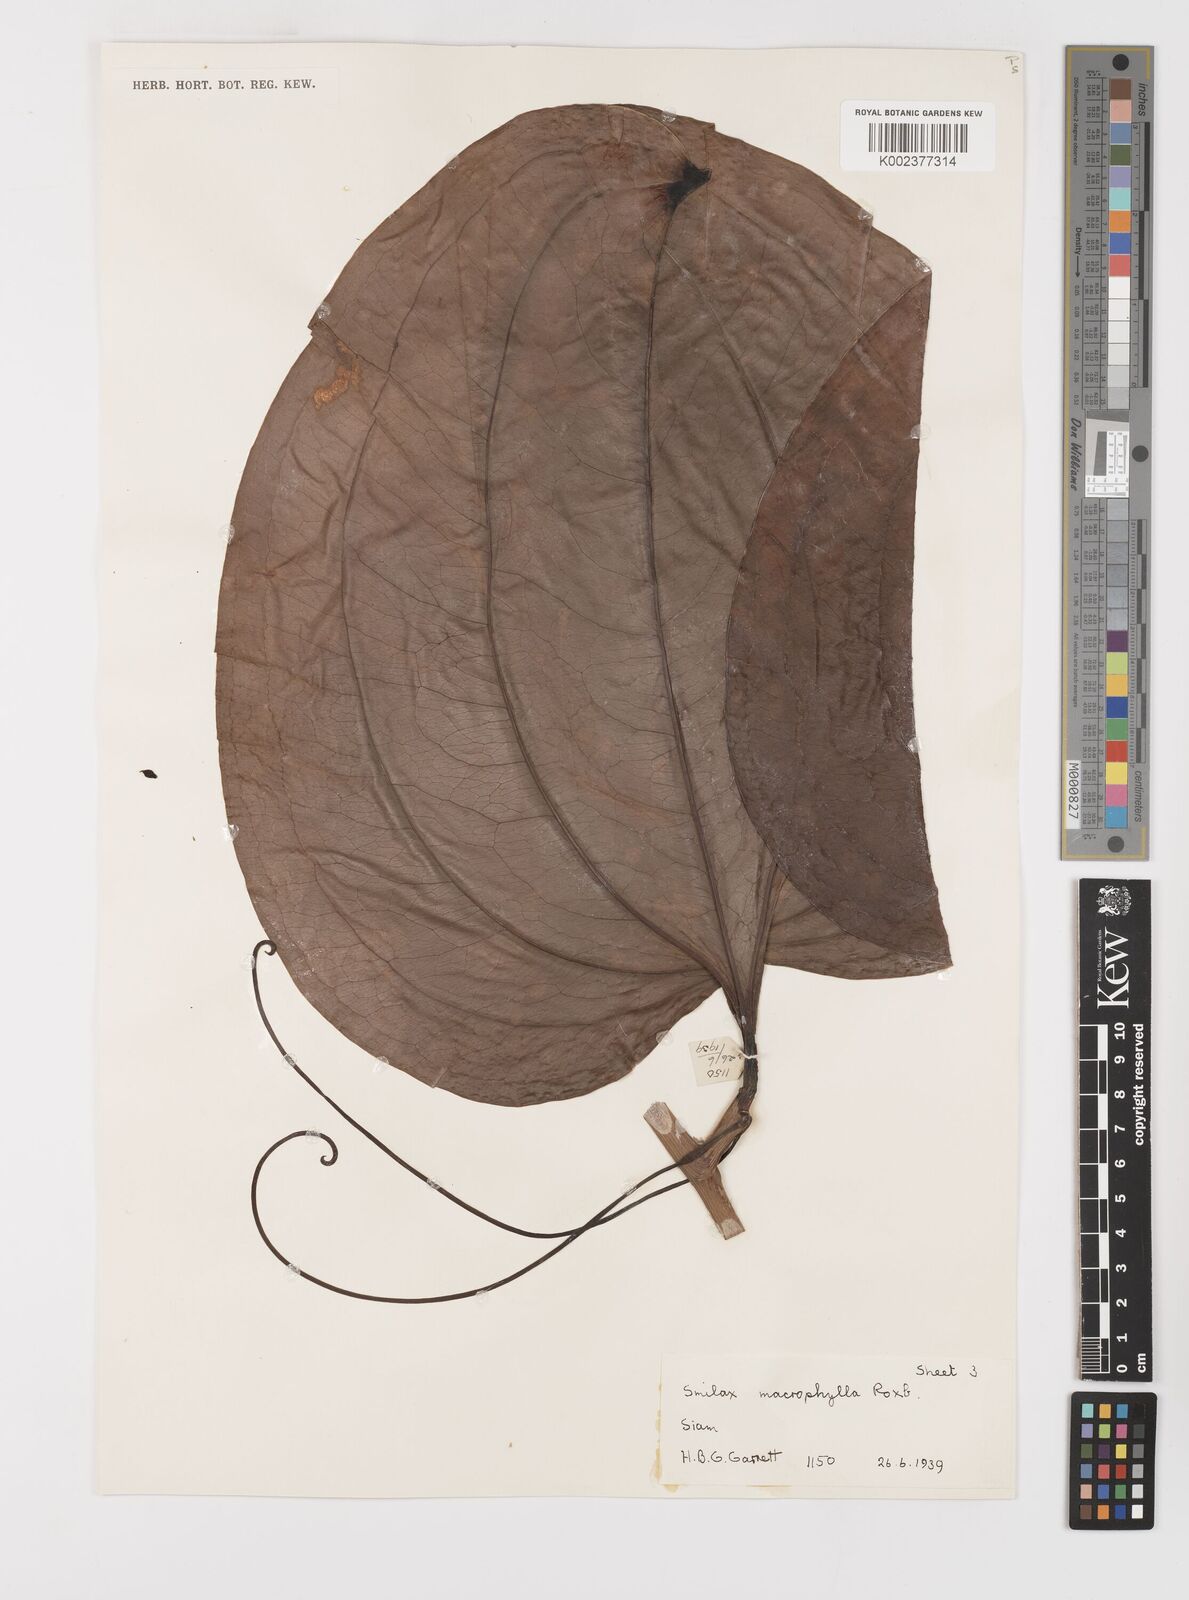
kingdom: Plantae
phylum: Tracheophyta
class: Liliopsida
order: Liliales
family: Smilacaceae
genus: Smilax
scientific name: Smilax ovalifolia
